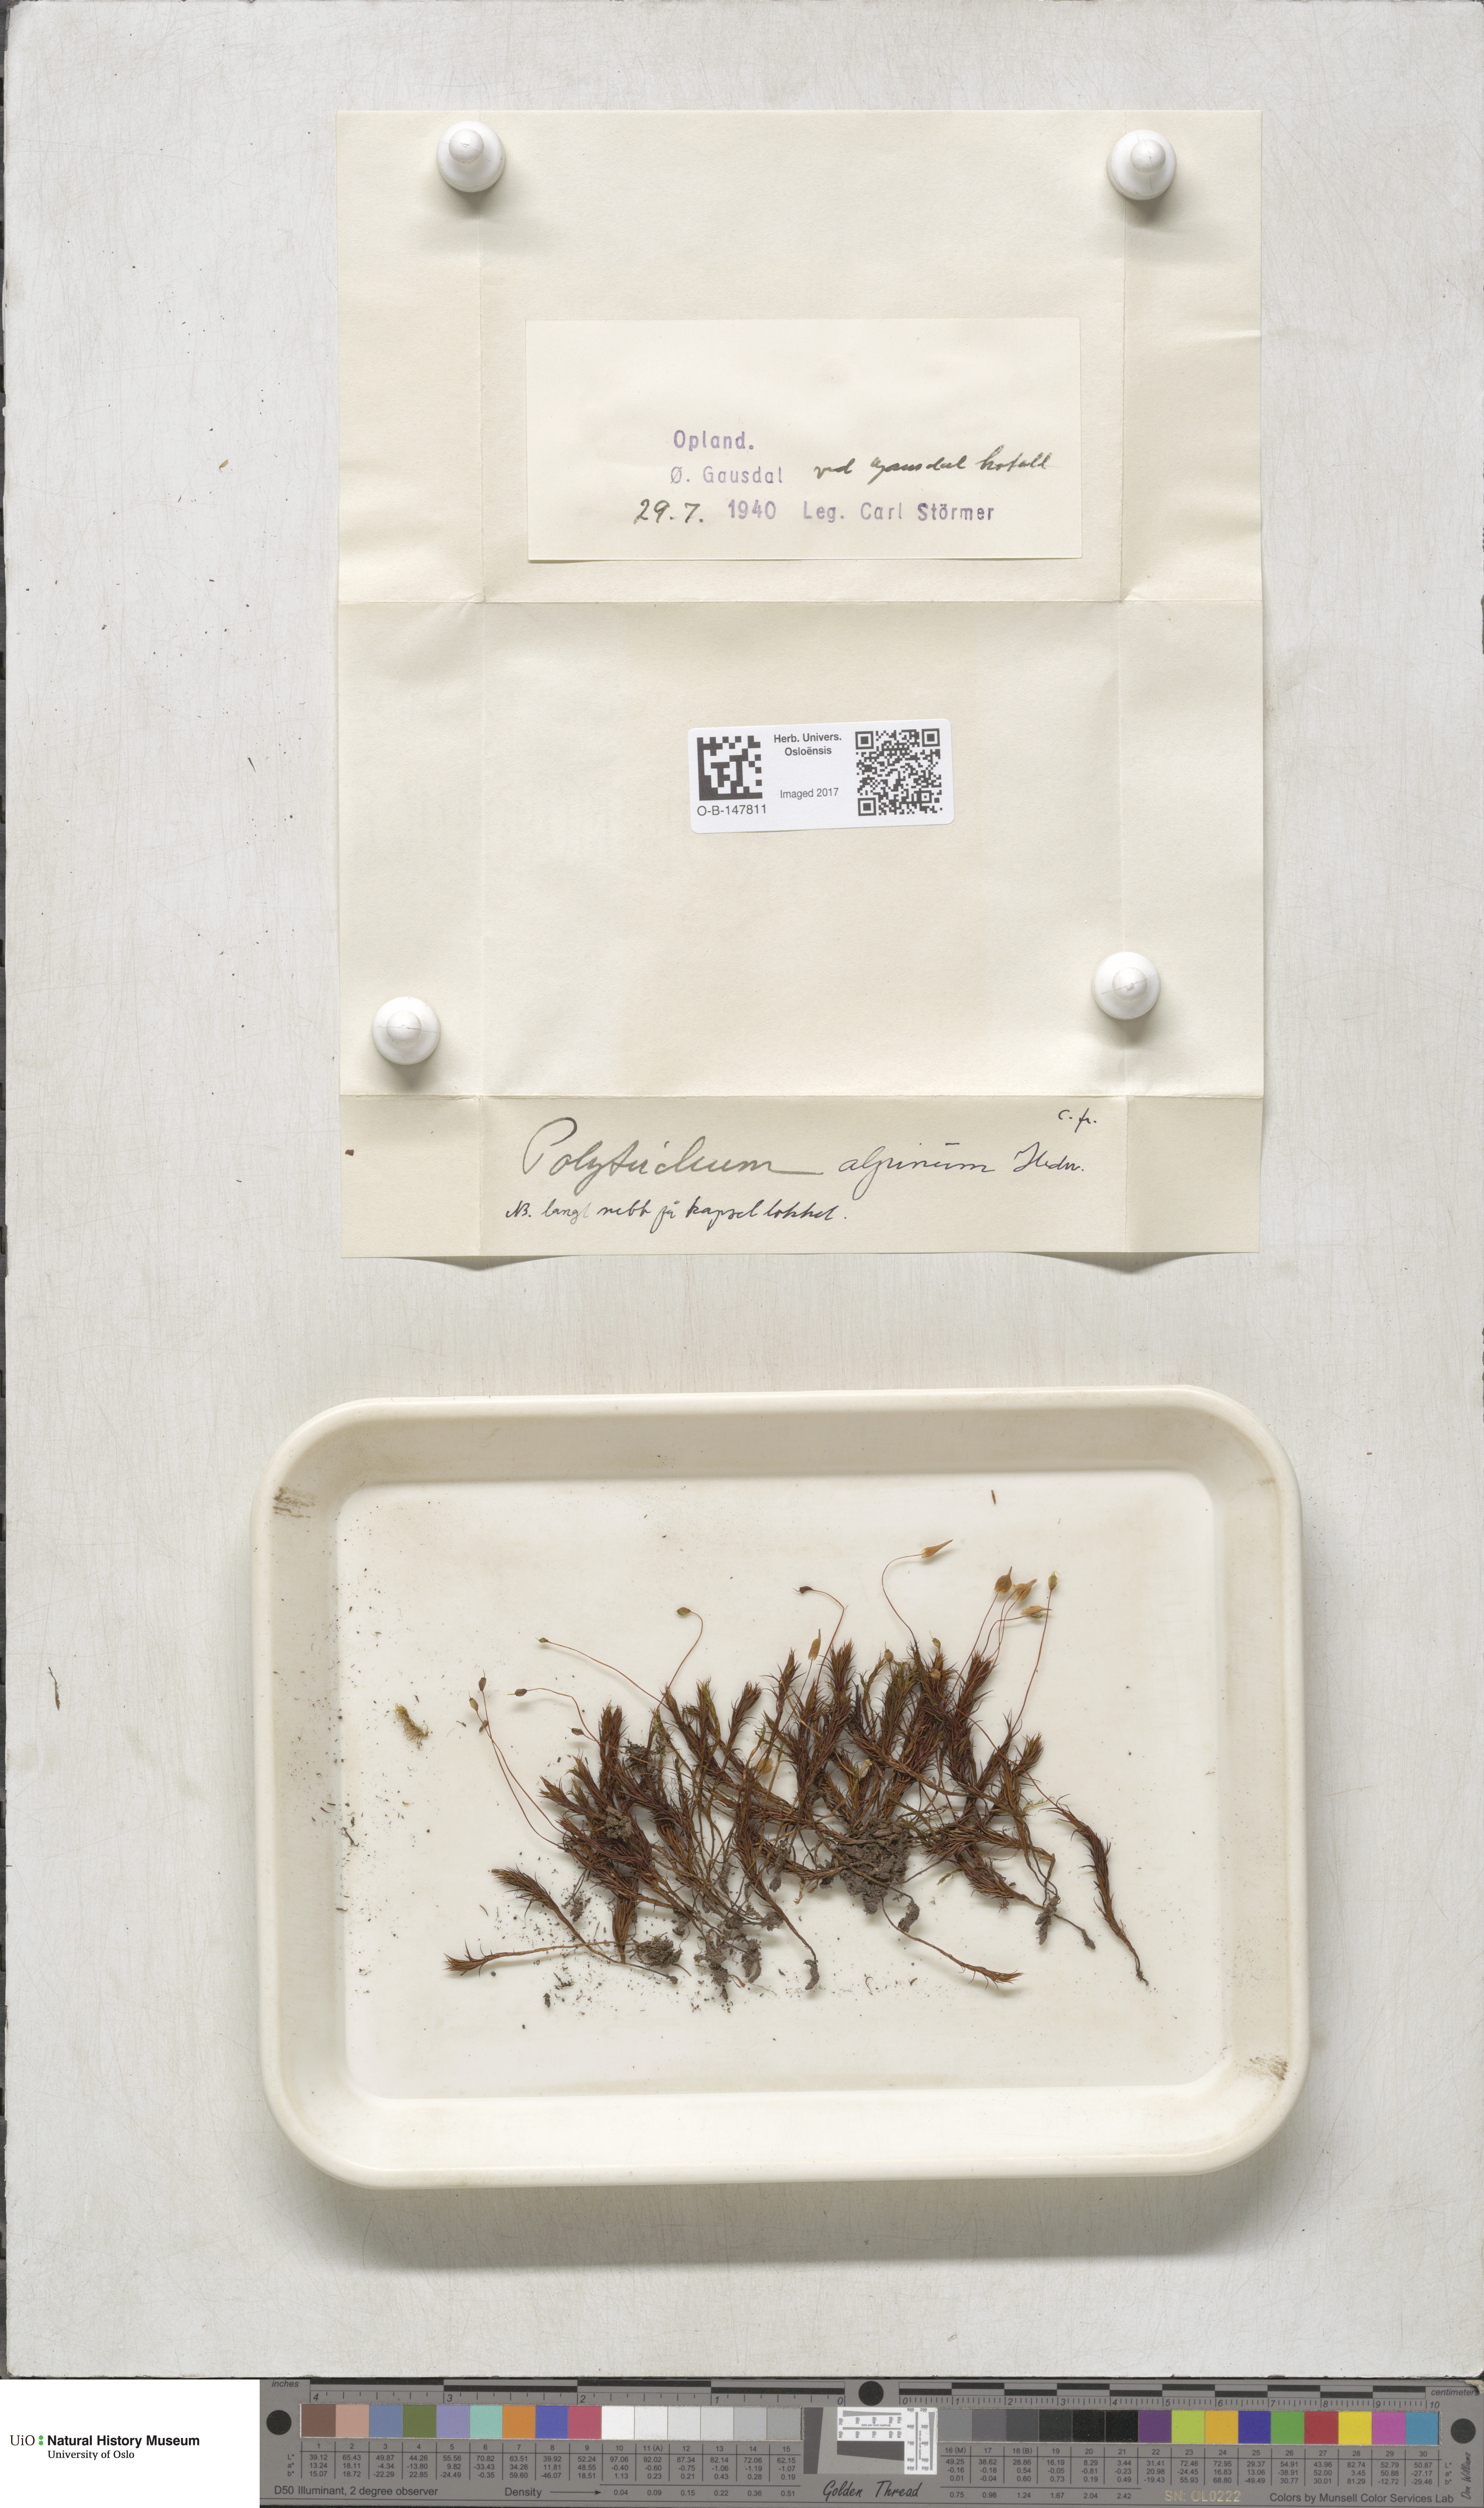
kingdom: Plantae
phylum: Bryophyta
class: Polytrichopsida
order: Polytrichales
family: Polytrichaceae
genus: Polytrichastrum
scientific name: Polytrichastrum alpinum
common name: Alpine haircap
